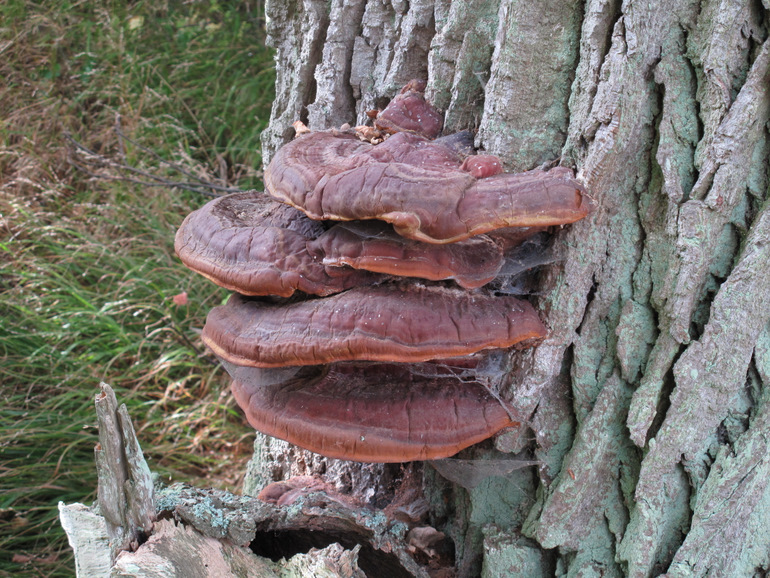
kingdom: Fungi
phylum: Basidiomycota
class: Agaricomycetes
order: Polyporales
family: Polyporaceae
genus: Ganoderma
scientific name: Ganoderma resinaceum
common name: gyldenbrun lakporesvamp
